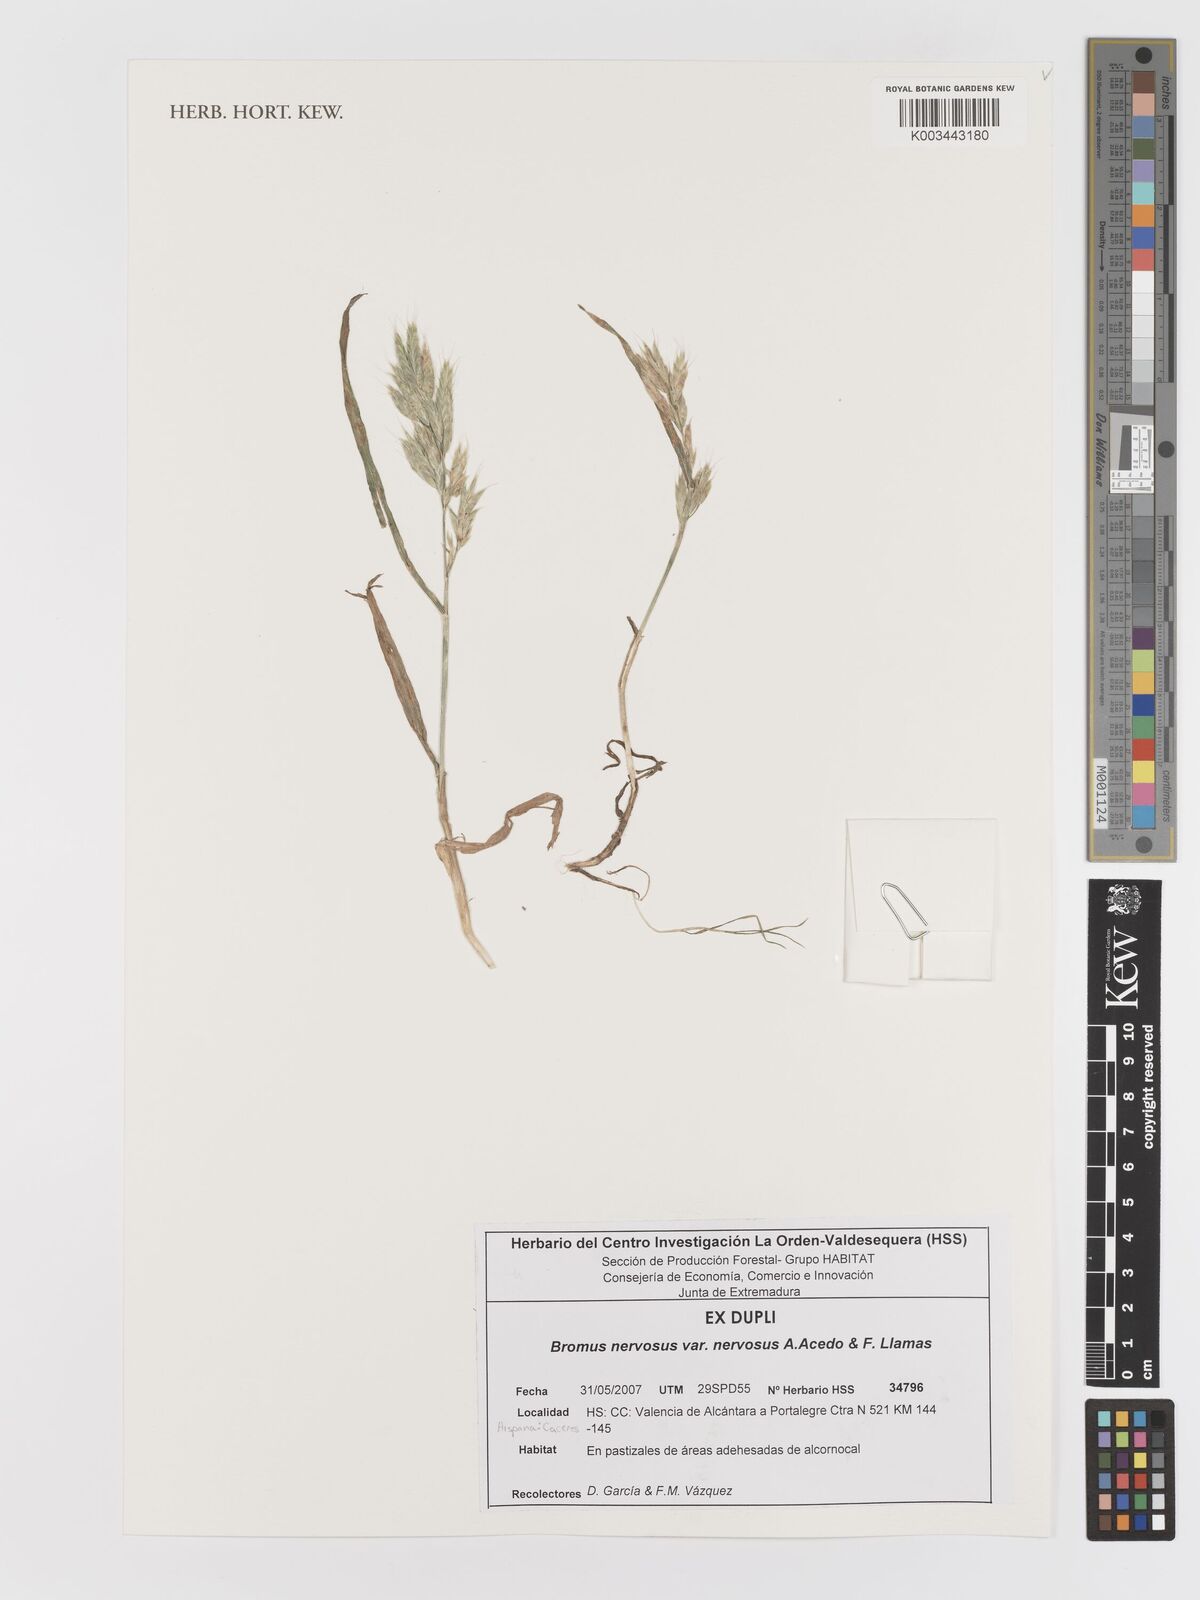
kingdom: Plantae
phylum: Tracheophyta
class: Liliopsida
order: Poales
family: Poaceae
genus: Bromus
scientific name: Bromus nervosus
